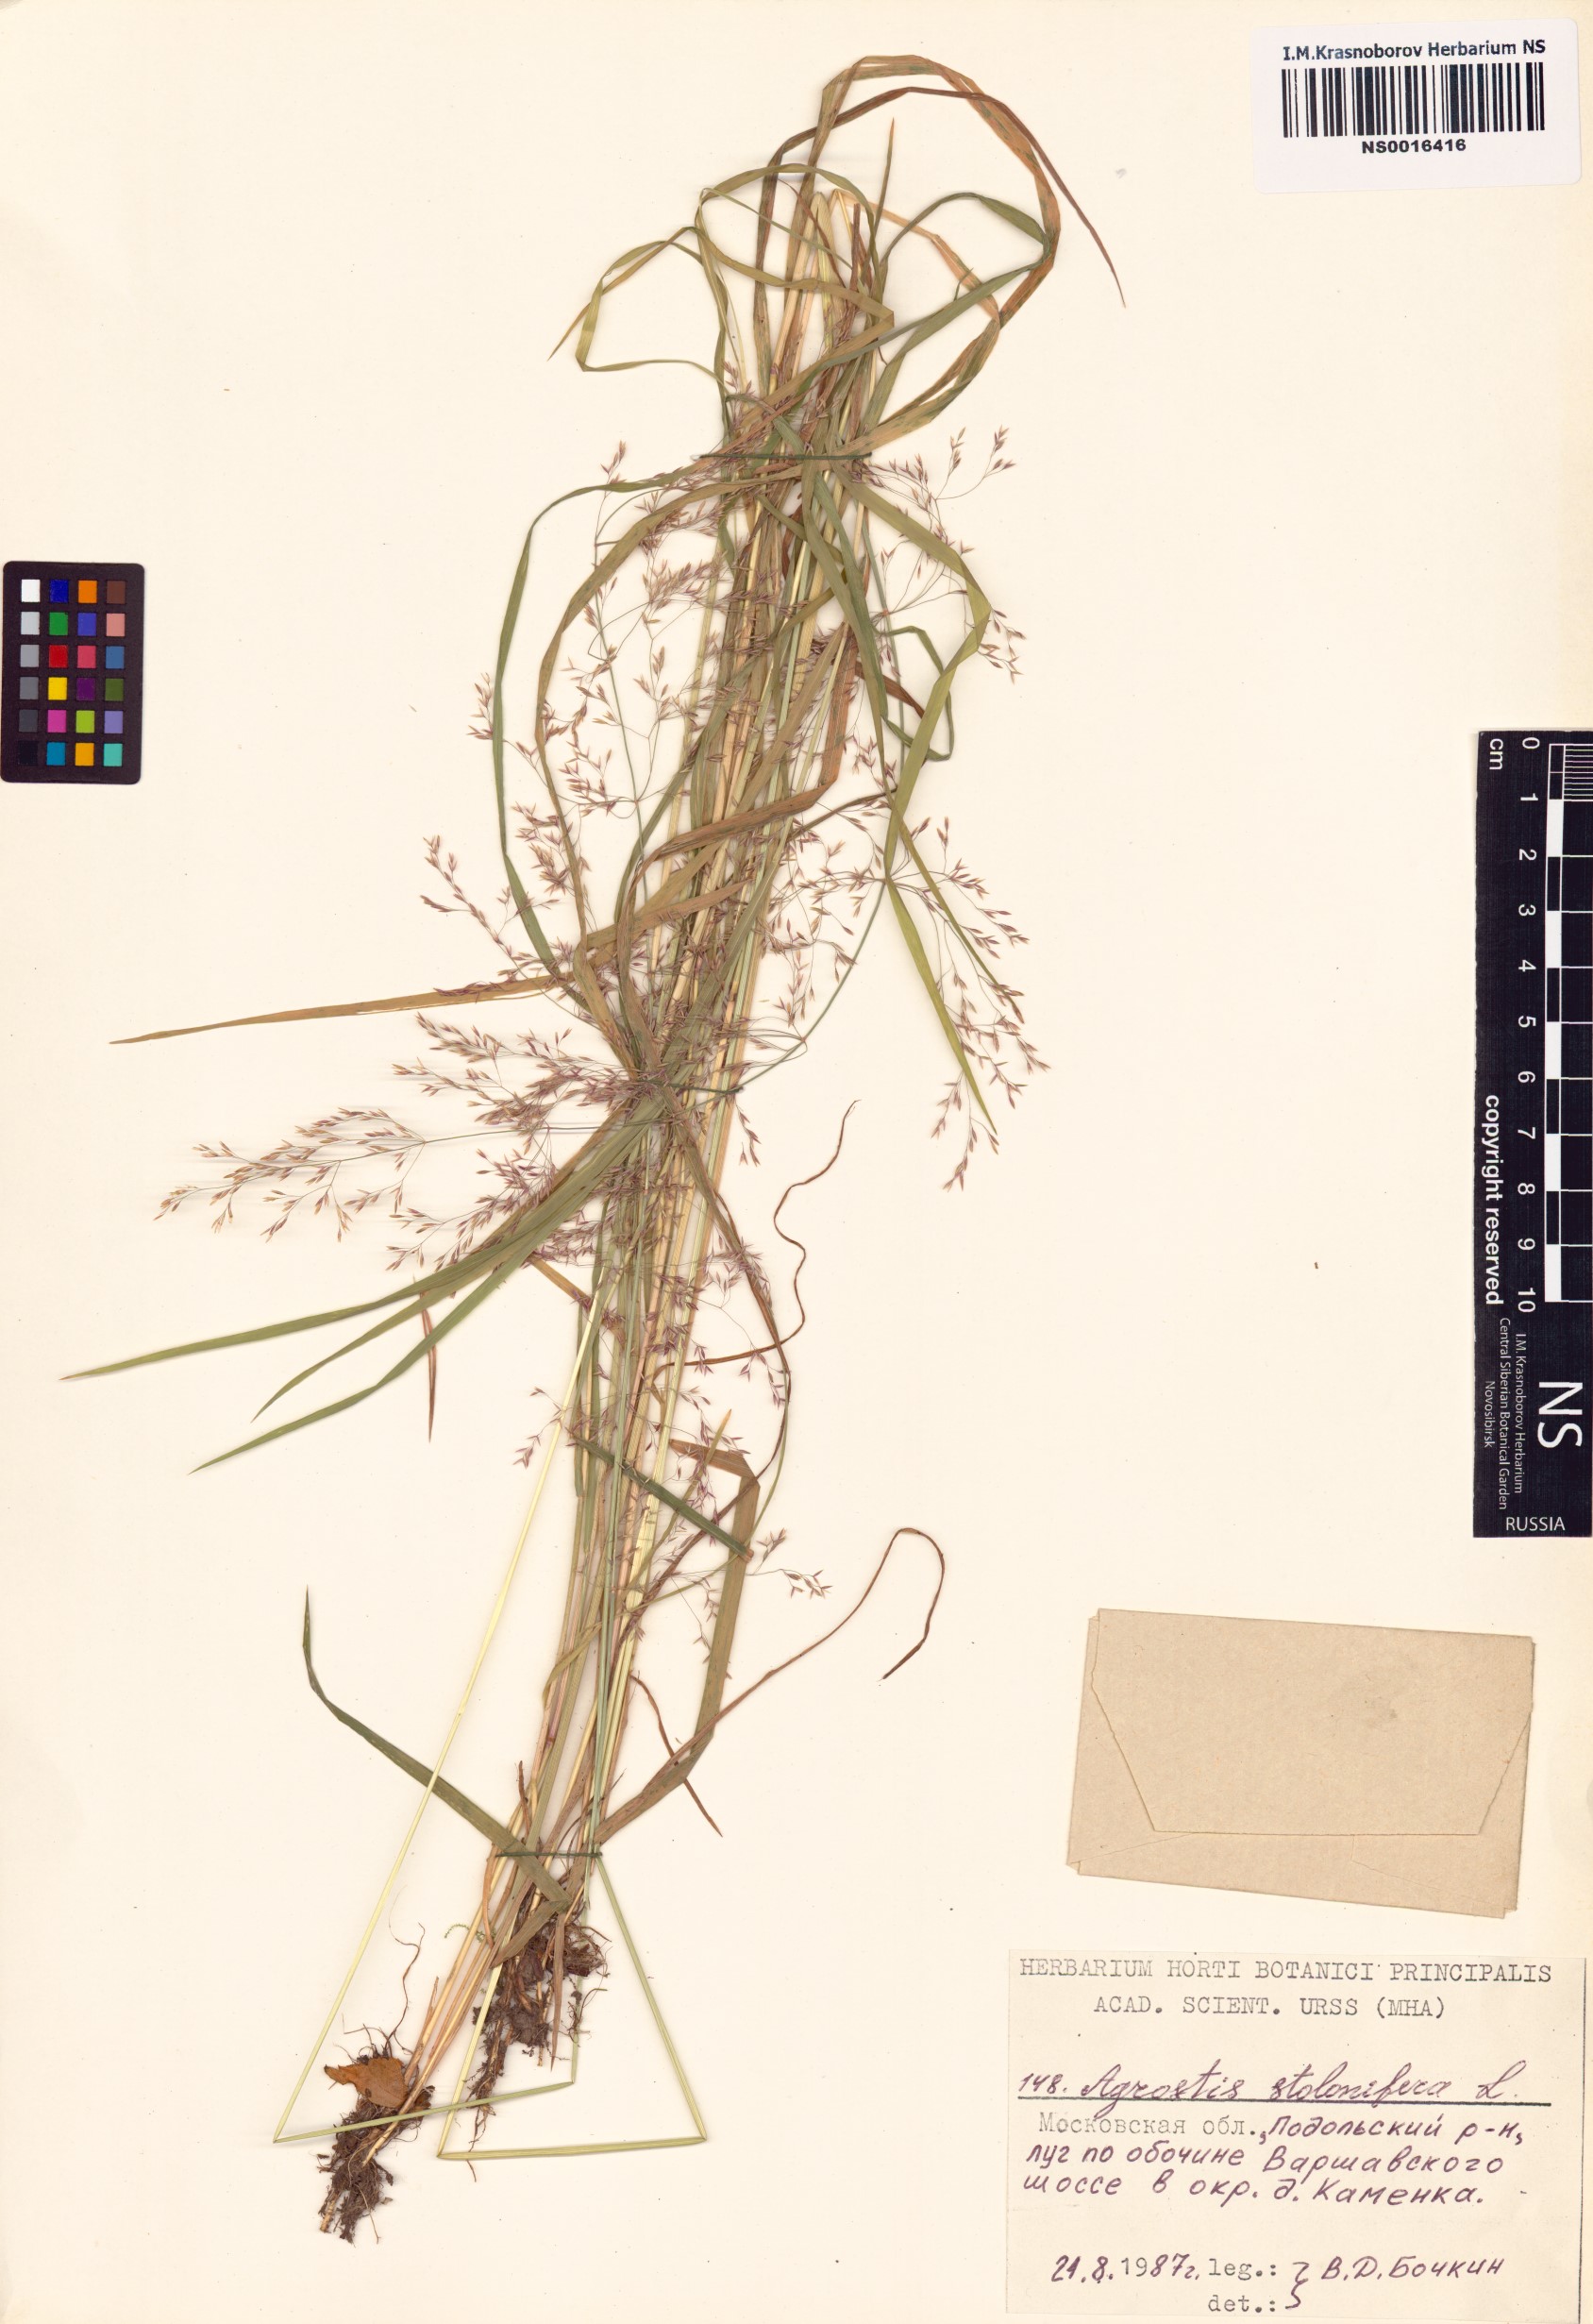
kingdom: Plantae
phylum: Tracheophyta
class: Liliopsida
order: Poales
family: Poaceae
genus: Agrostis
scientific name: Agrostis stolonifera
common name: Creeping bentgrass
